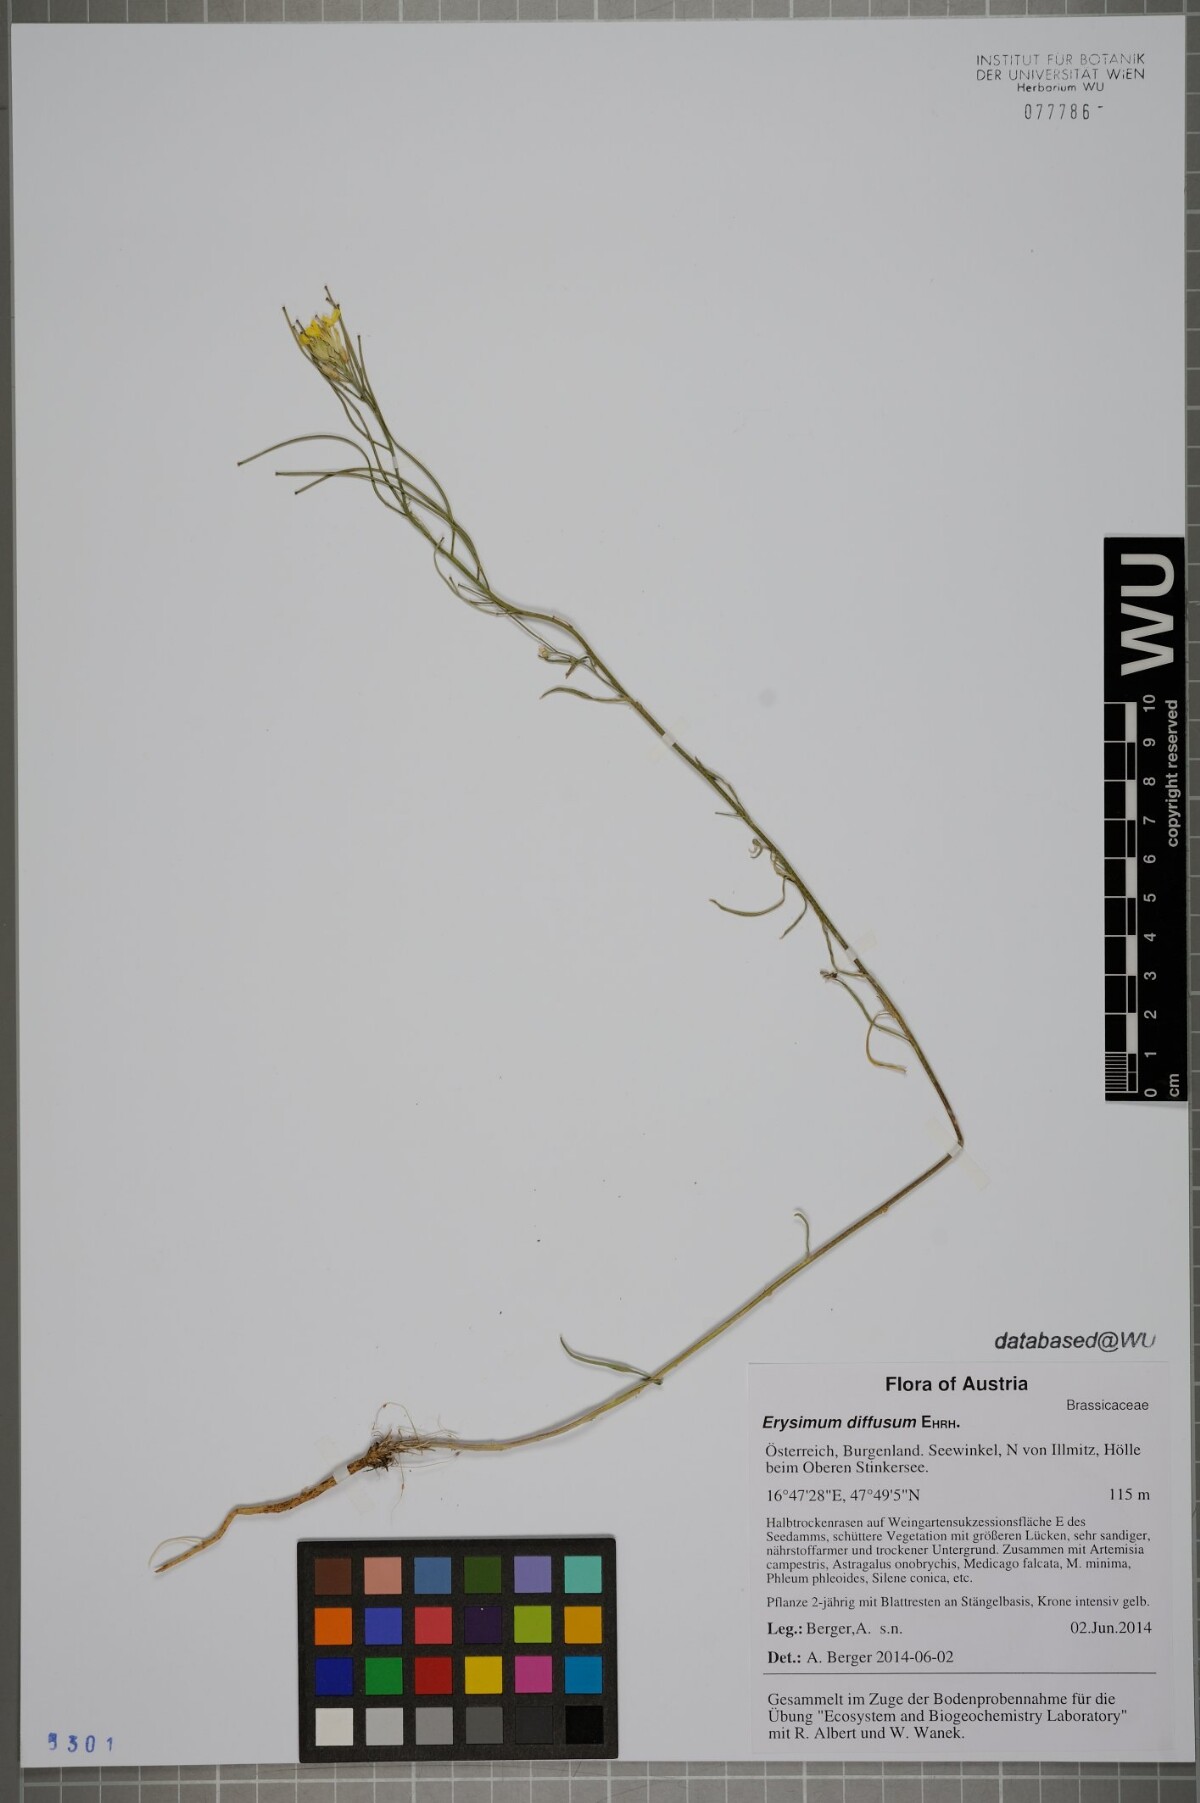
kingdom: Plantae
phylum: Tracheophyta
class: Magnoliopsida
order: Brassicales
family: Brassicaceae
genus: Erysimum
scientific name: Erysimum diffusum
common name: Diffuse wallflower
